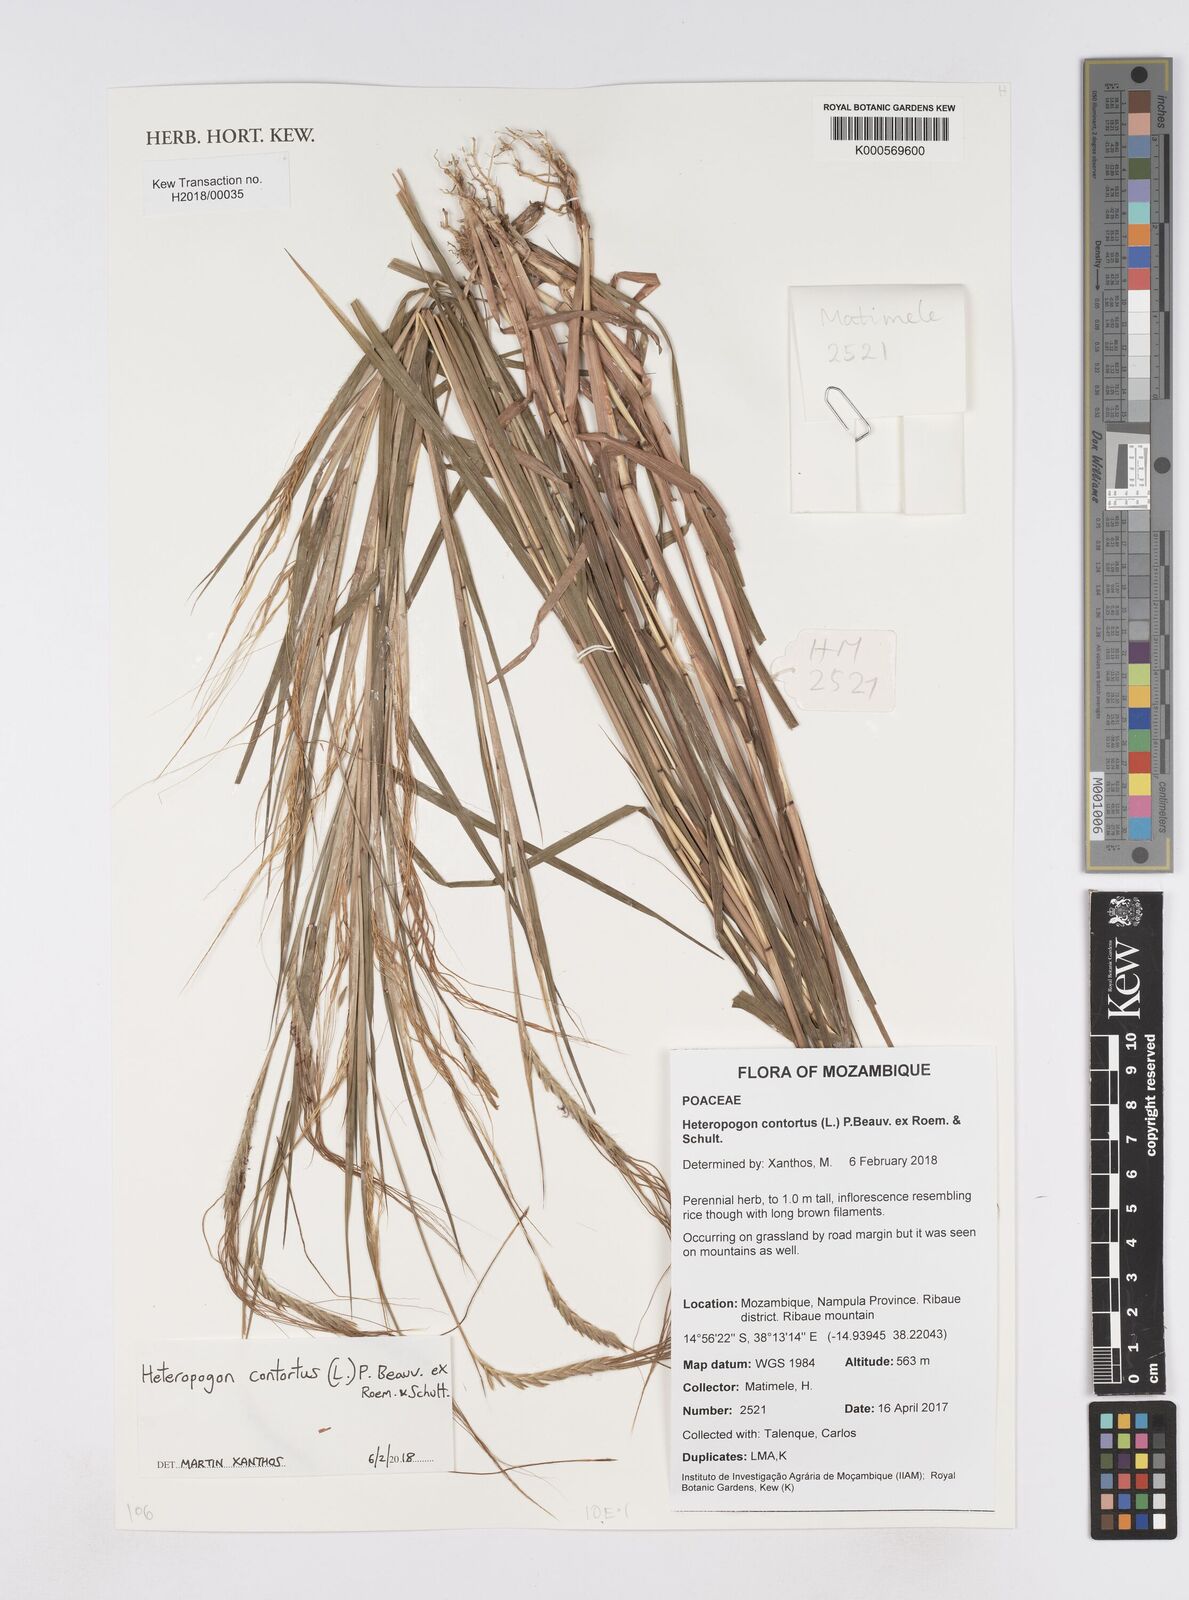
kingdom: Plantae
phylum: Tracheophyta
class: Liliopsida
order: Poales
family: Poaceae
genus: Heteropogon
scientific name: Heteropogon contortus
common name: Tanglehead
